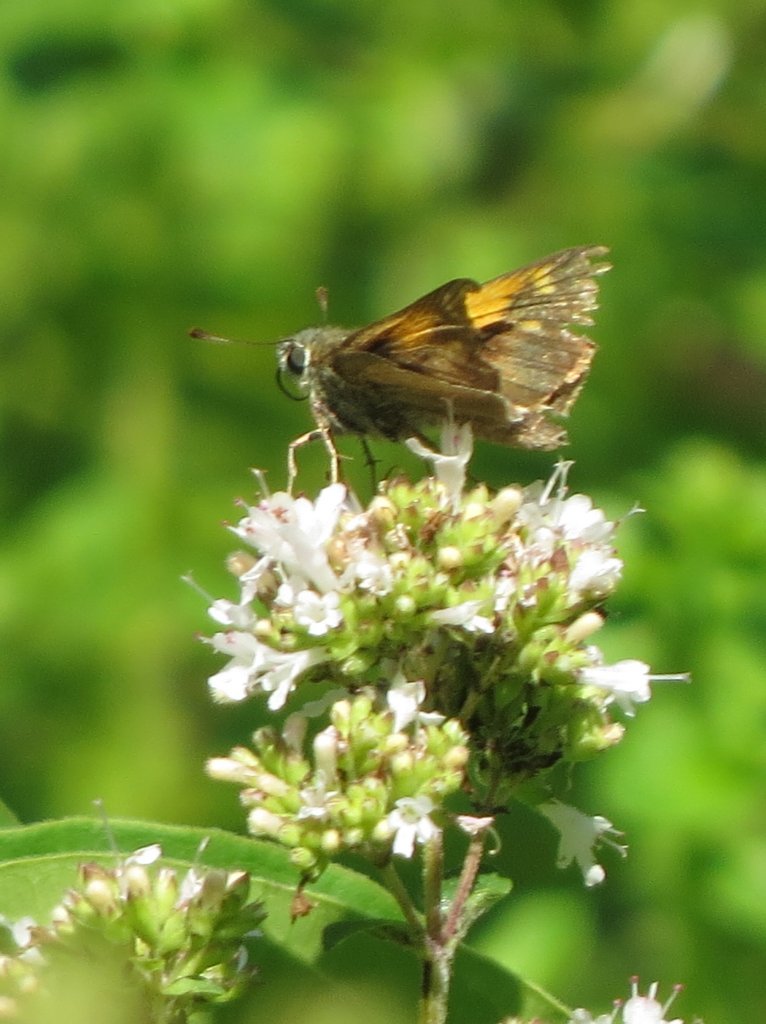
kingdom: Animalia
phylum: Arthropoda
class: Insecta
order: Lepidoptera
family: Hesperiidae
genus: Polites
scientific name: Polites themistocles
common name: Tawny-edged Skipper
